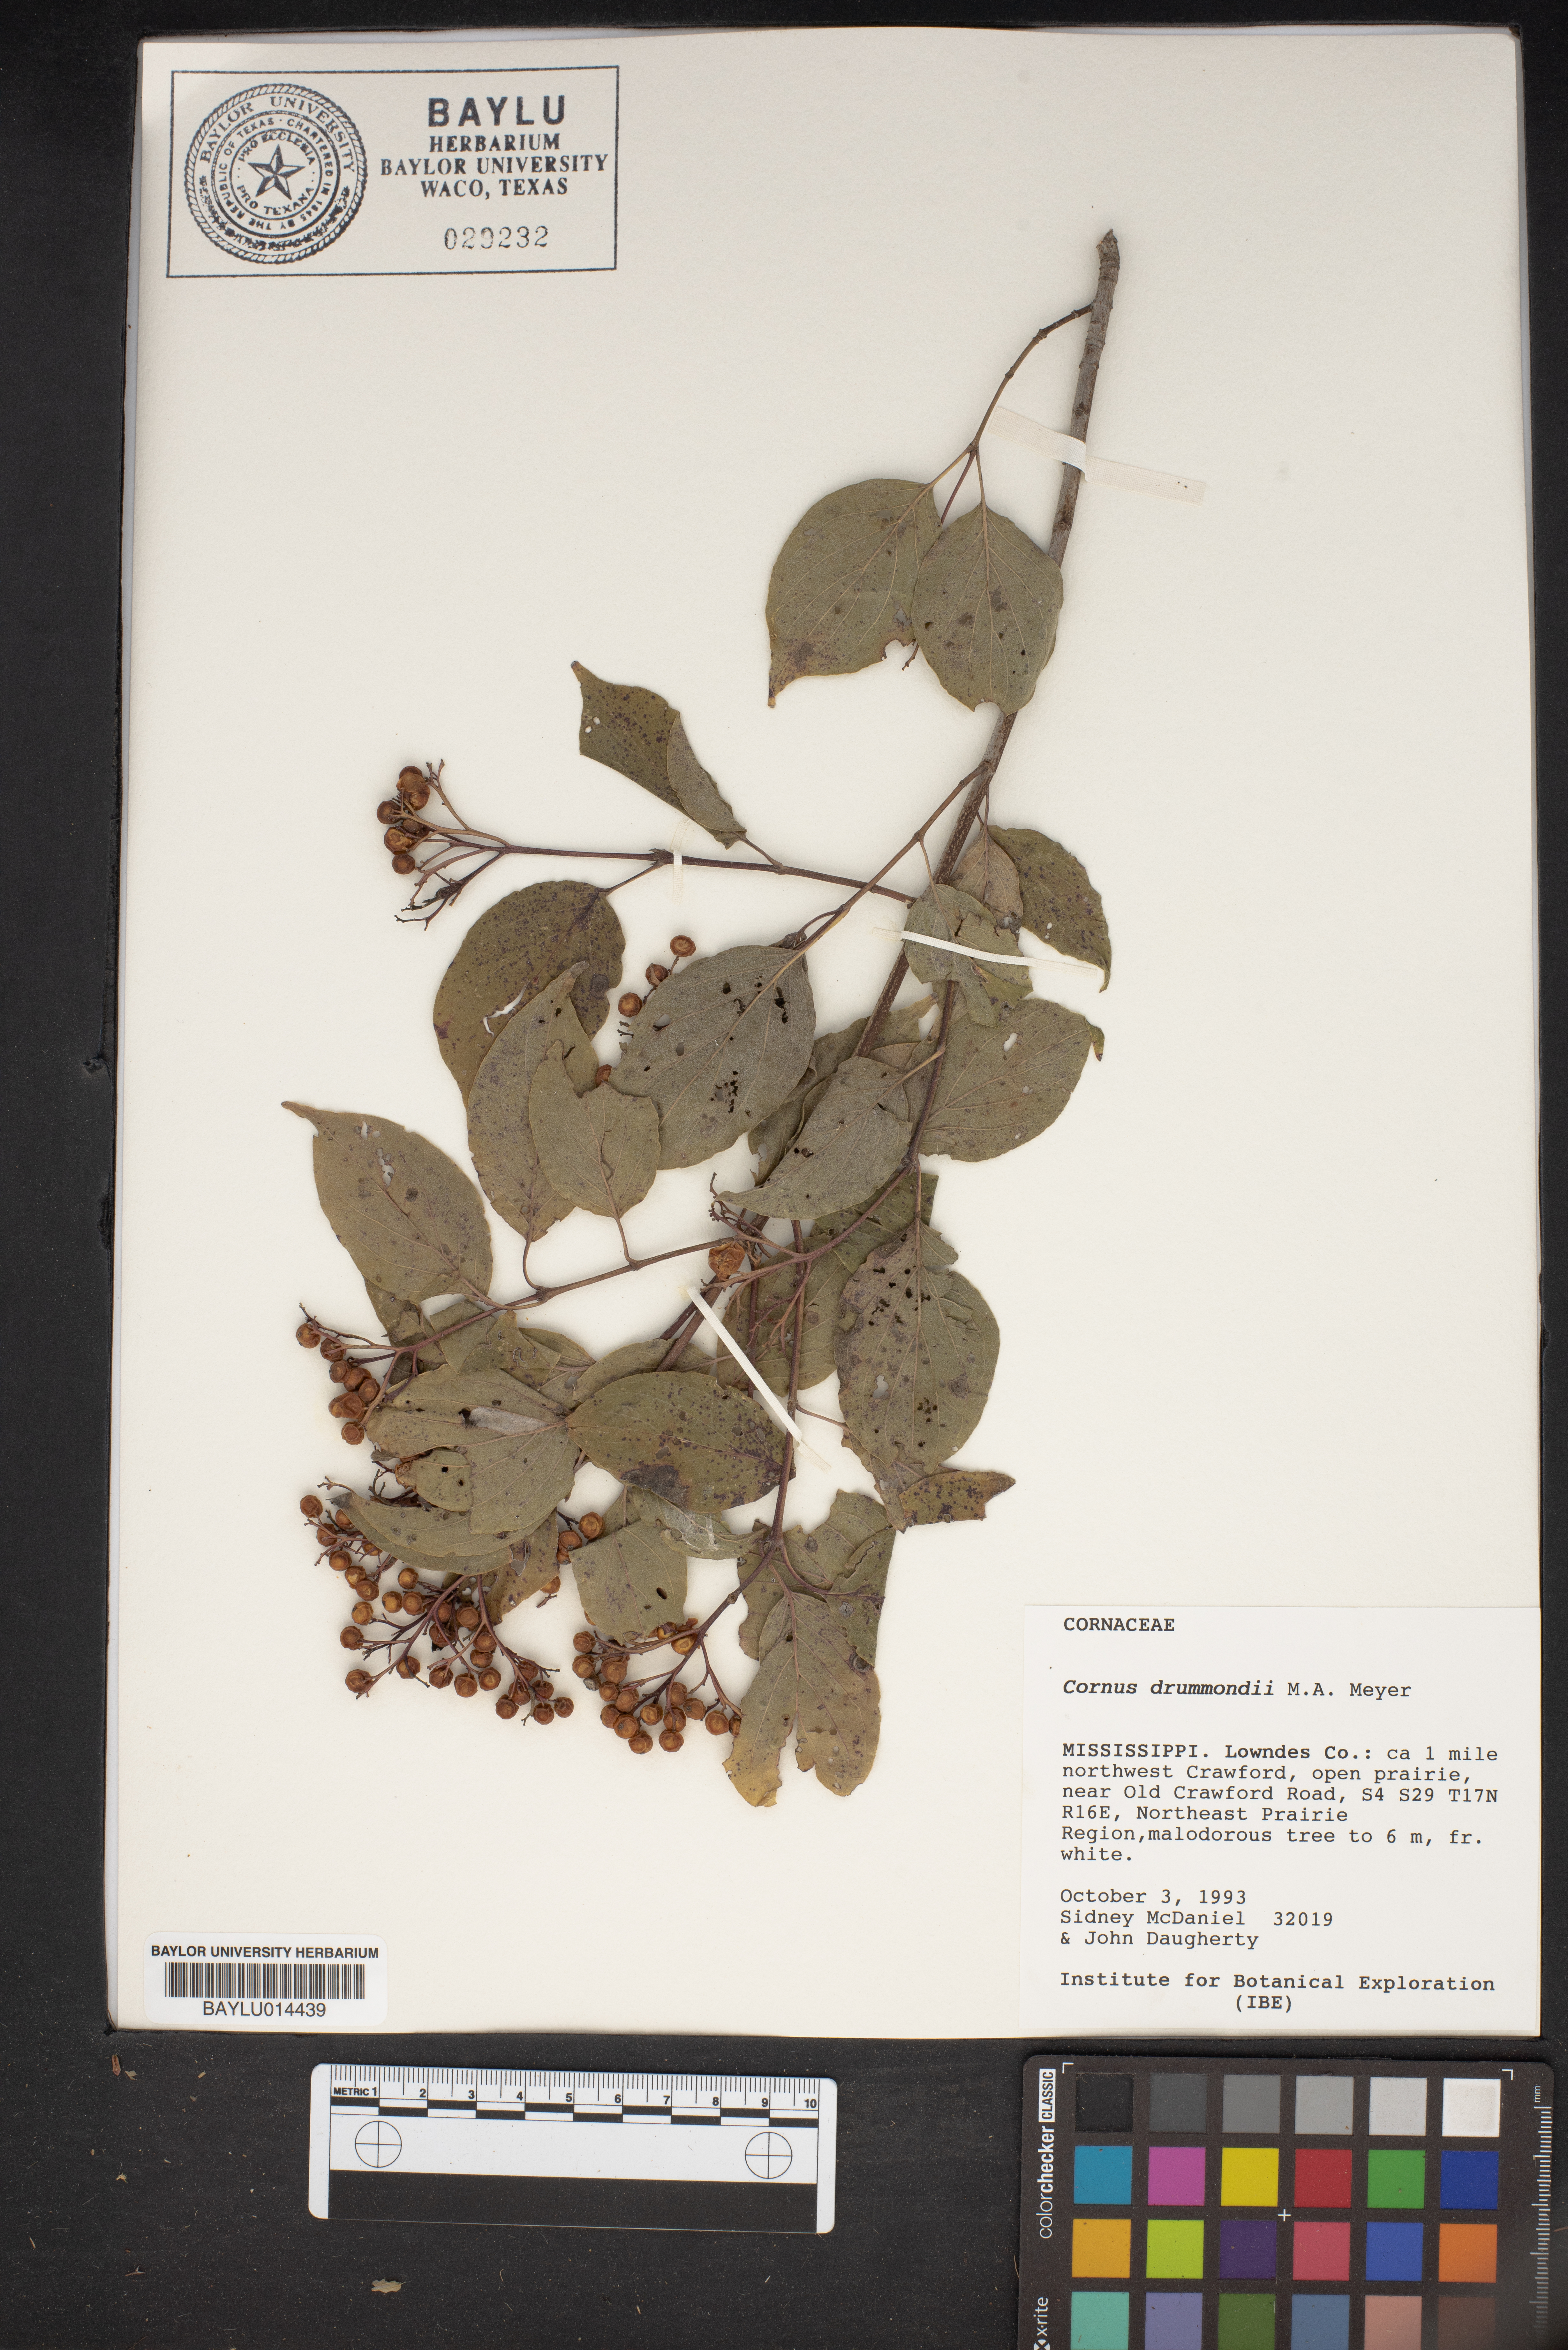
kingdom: Plantae
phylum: Tracheophyta
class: Magnoliopsida
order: Cornales
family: Cornaceae
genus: Cornus
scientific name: Cornus drummondii
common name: Rough-leaf dogwood
